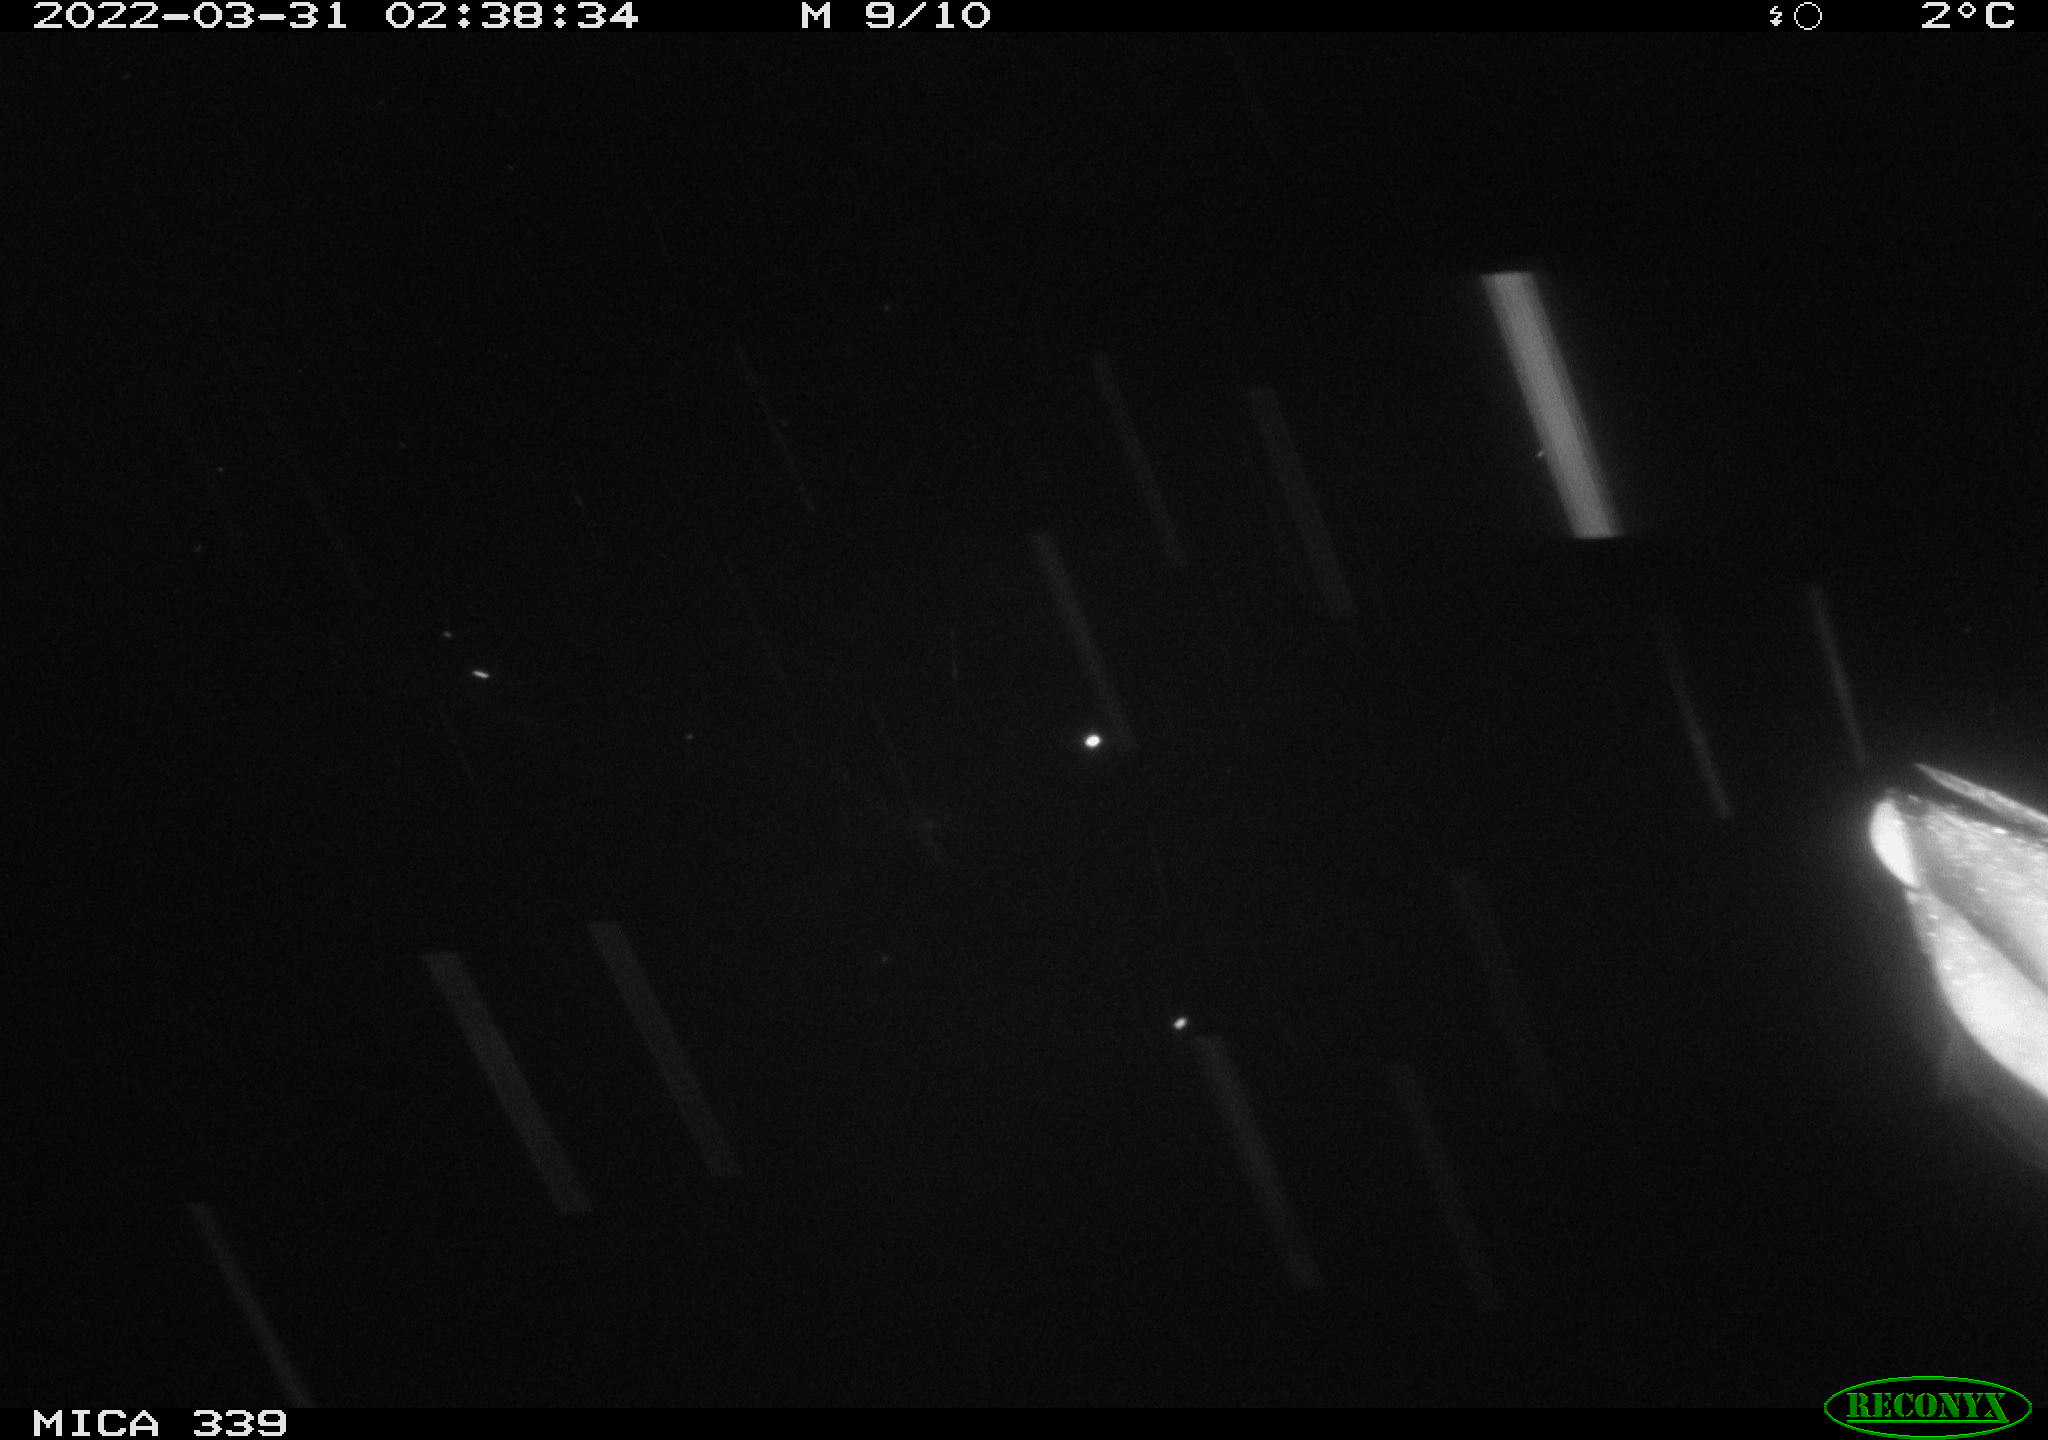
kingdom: Animalia
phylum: Chordata
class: Aves
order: Anseriformes
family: Anatidae
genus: Anas
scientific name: Anas platyrhynchos
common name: Mallard
